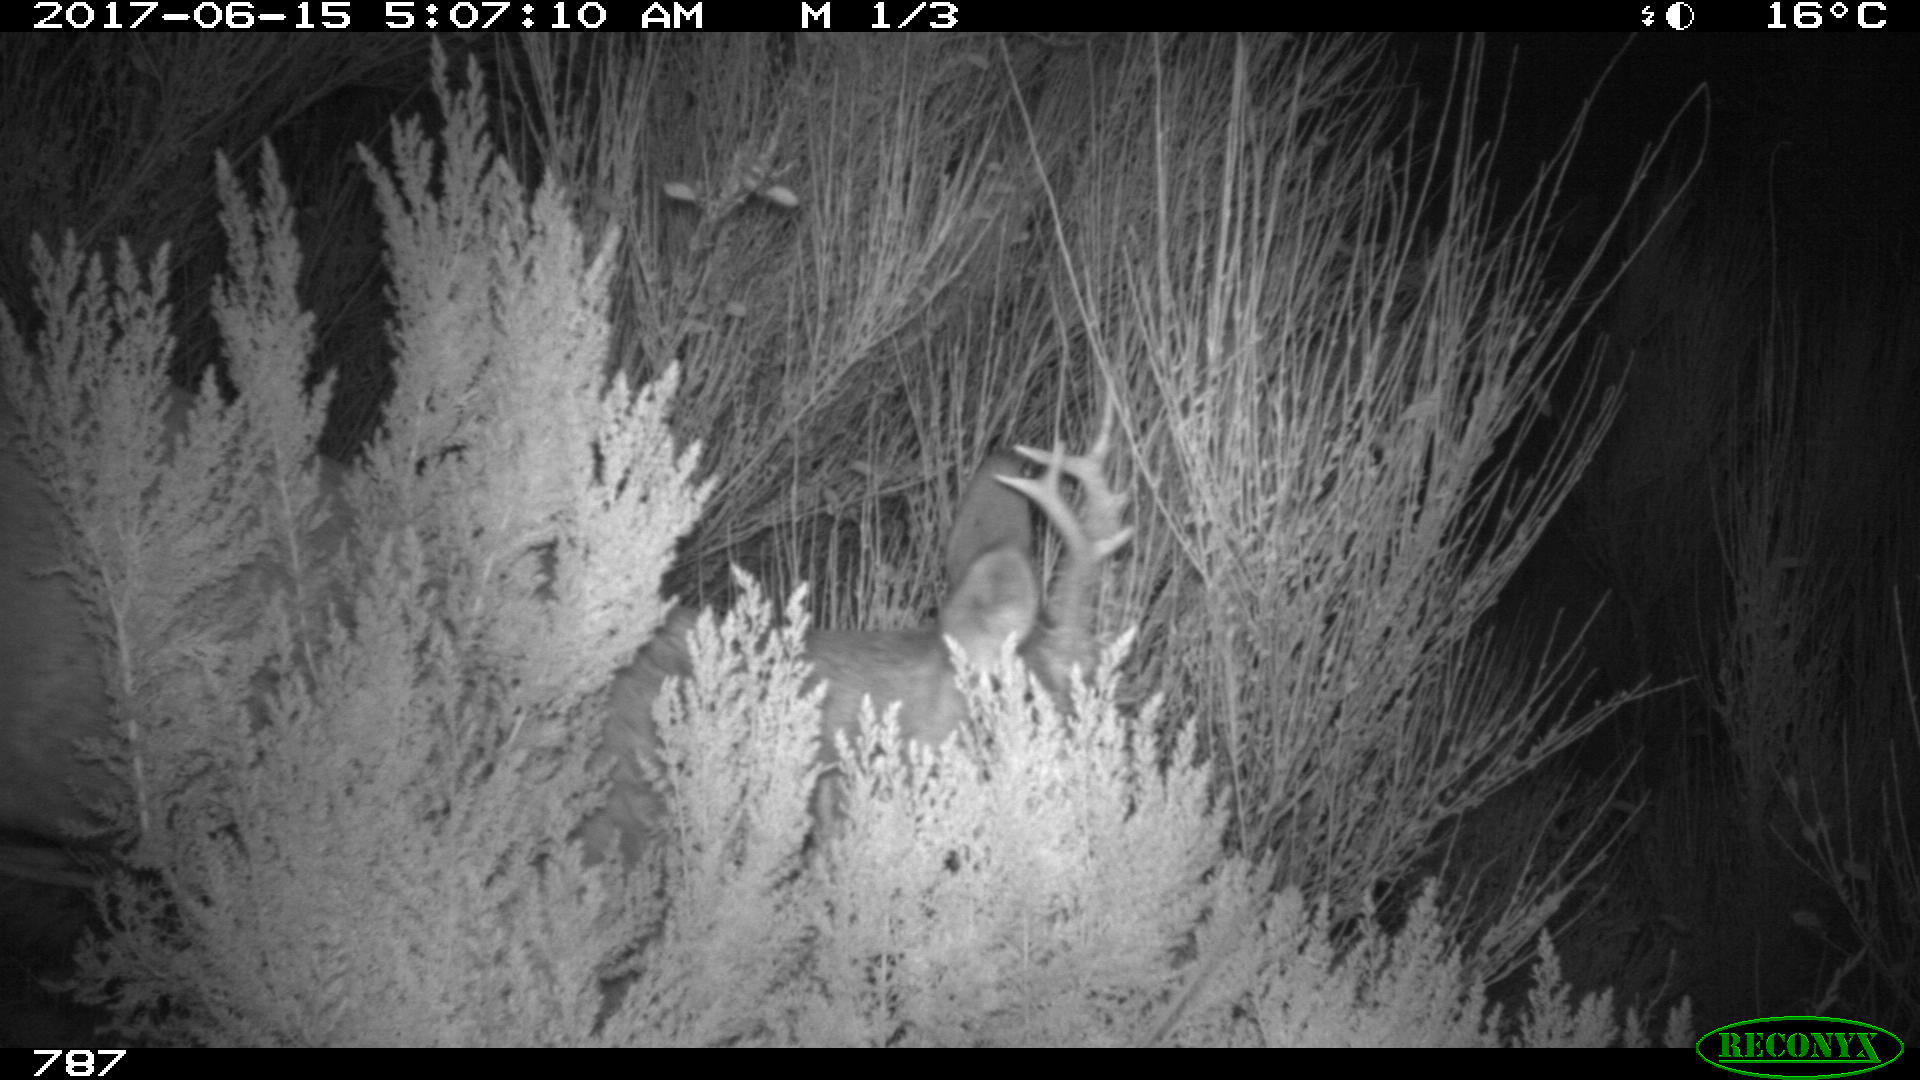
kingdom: Animalia
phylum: Chordata
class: Mammalia
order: Artiodactyla
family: Cervidae
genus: Capreolus
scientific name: Capreolus capreolus
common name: Western roe deer
